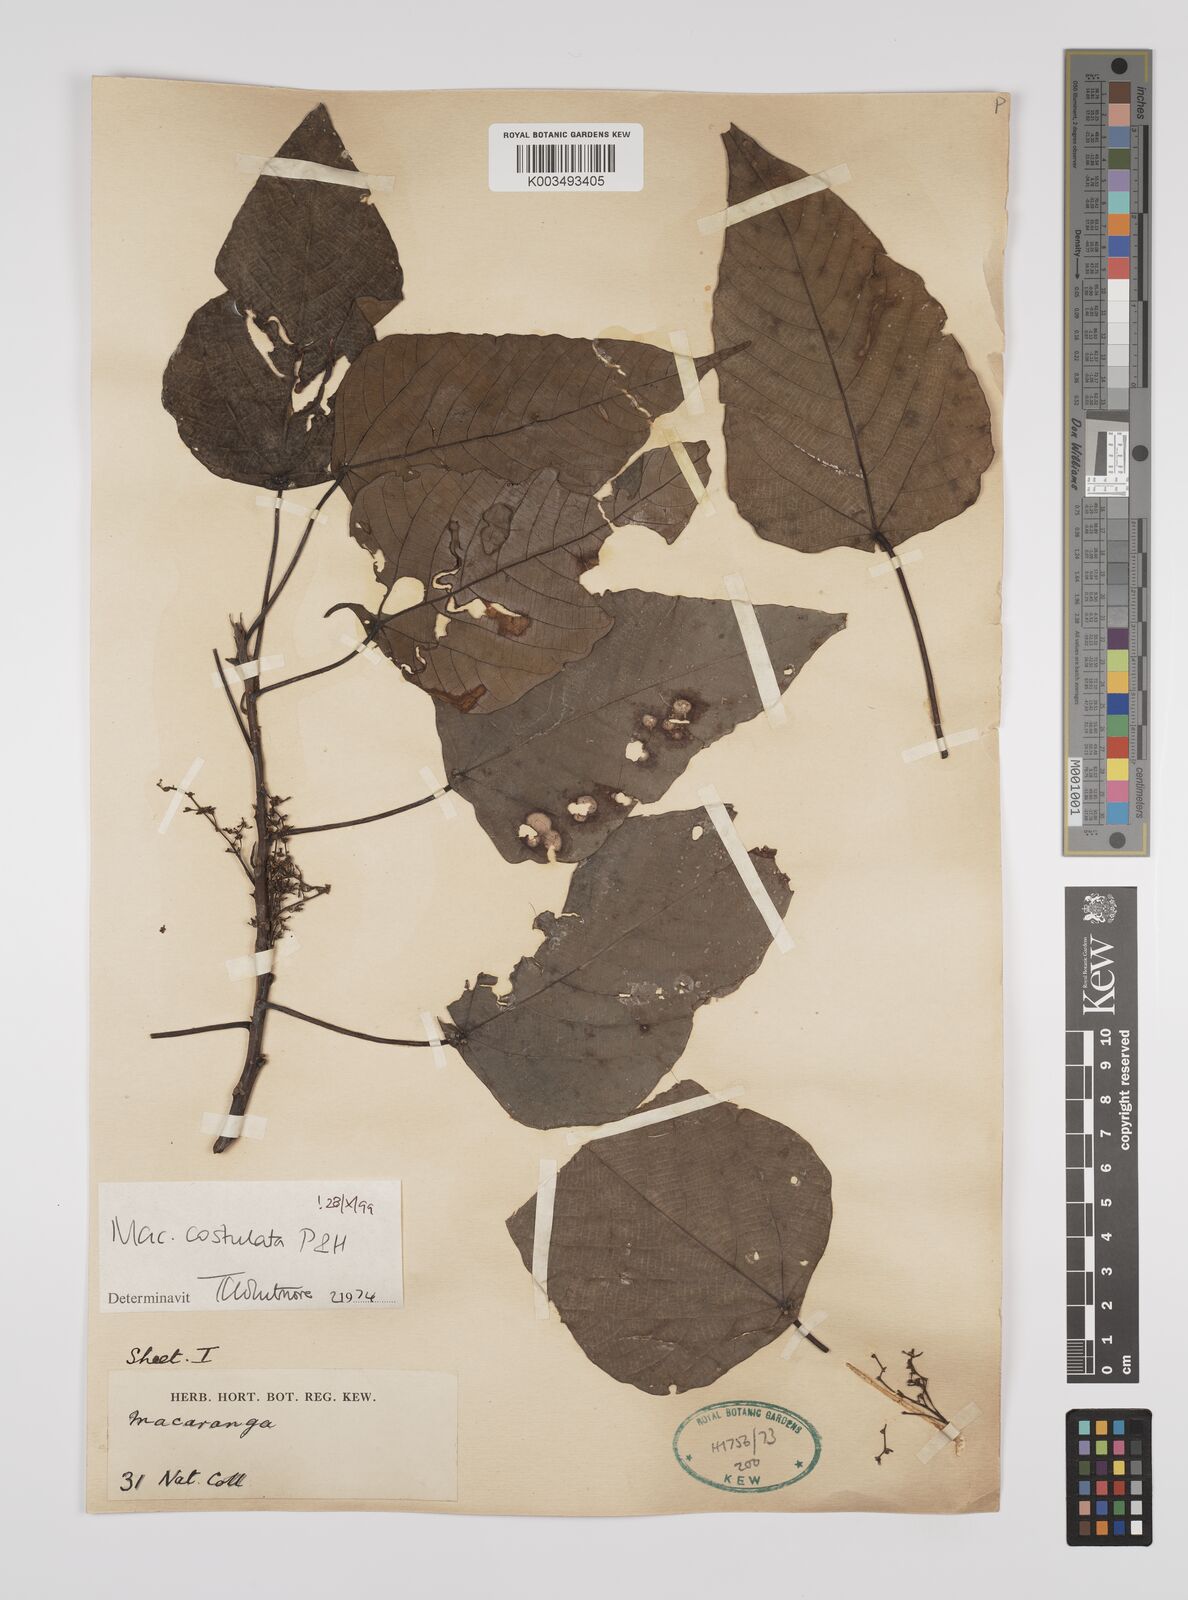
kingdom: Plantae
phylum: Tracheophyta
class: Magnoliopsida
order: Malpighiales
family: Euphorbiaceae
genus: Macaranga
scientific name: Macaranga costulata
